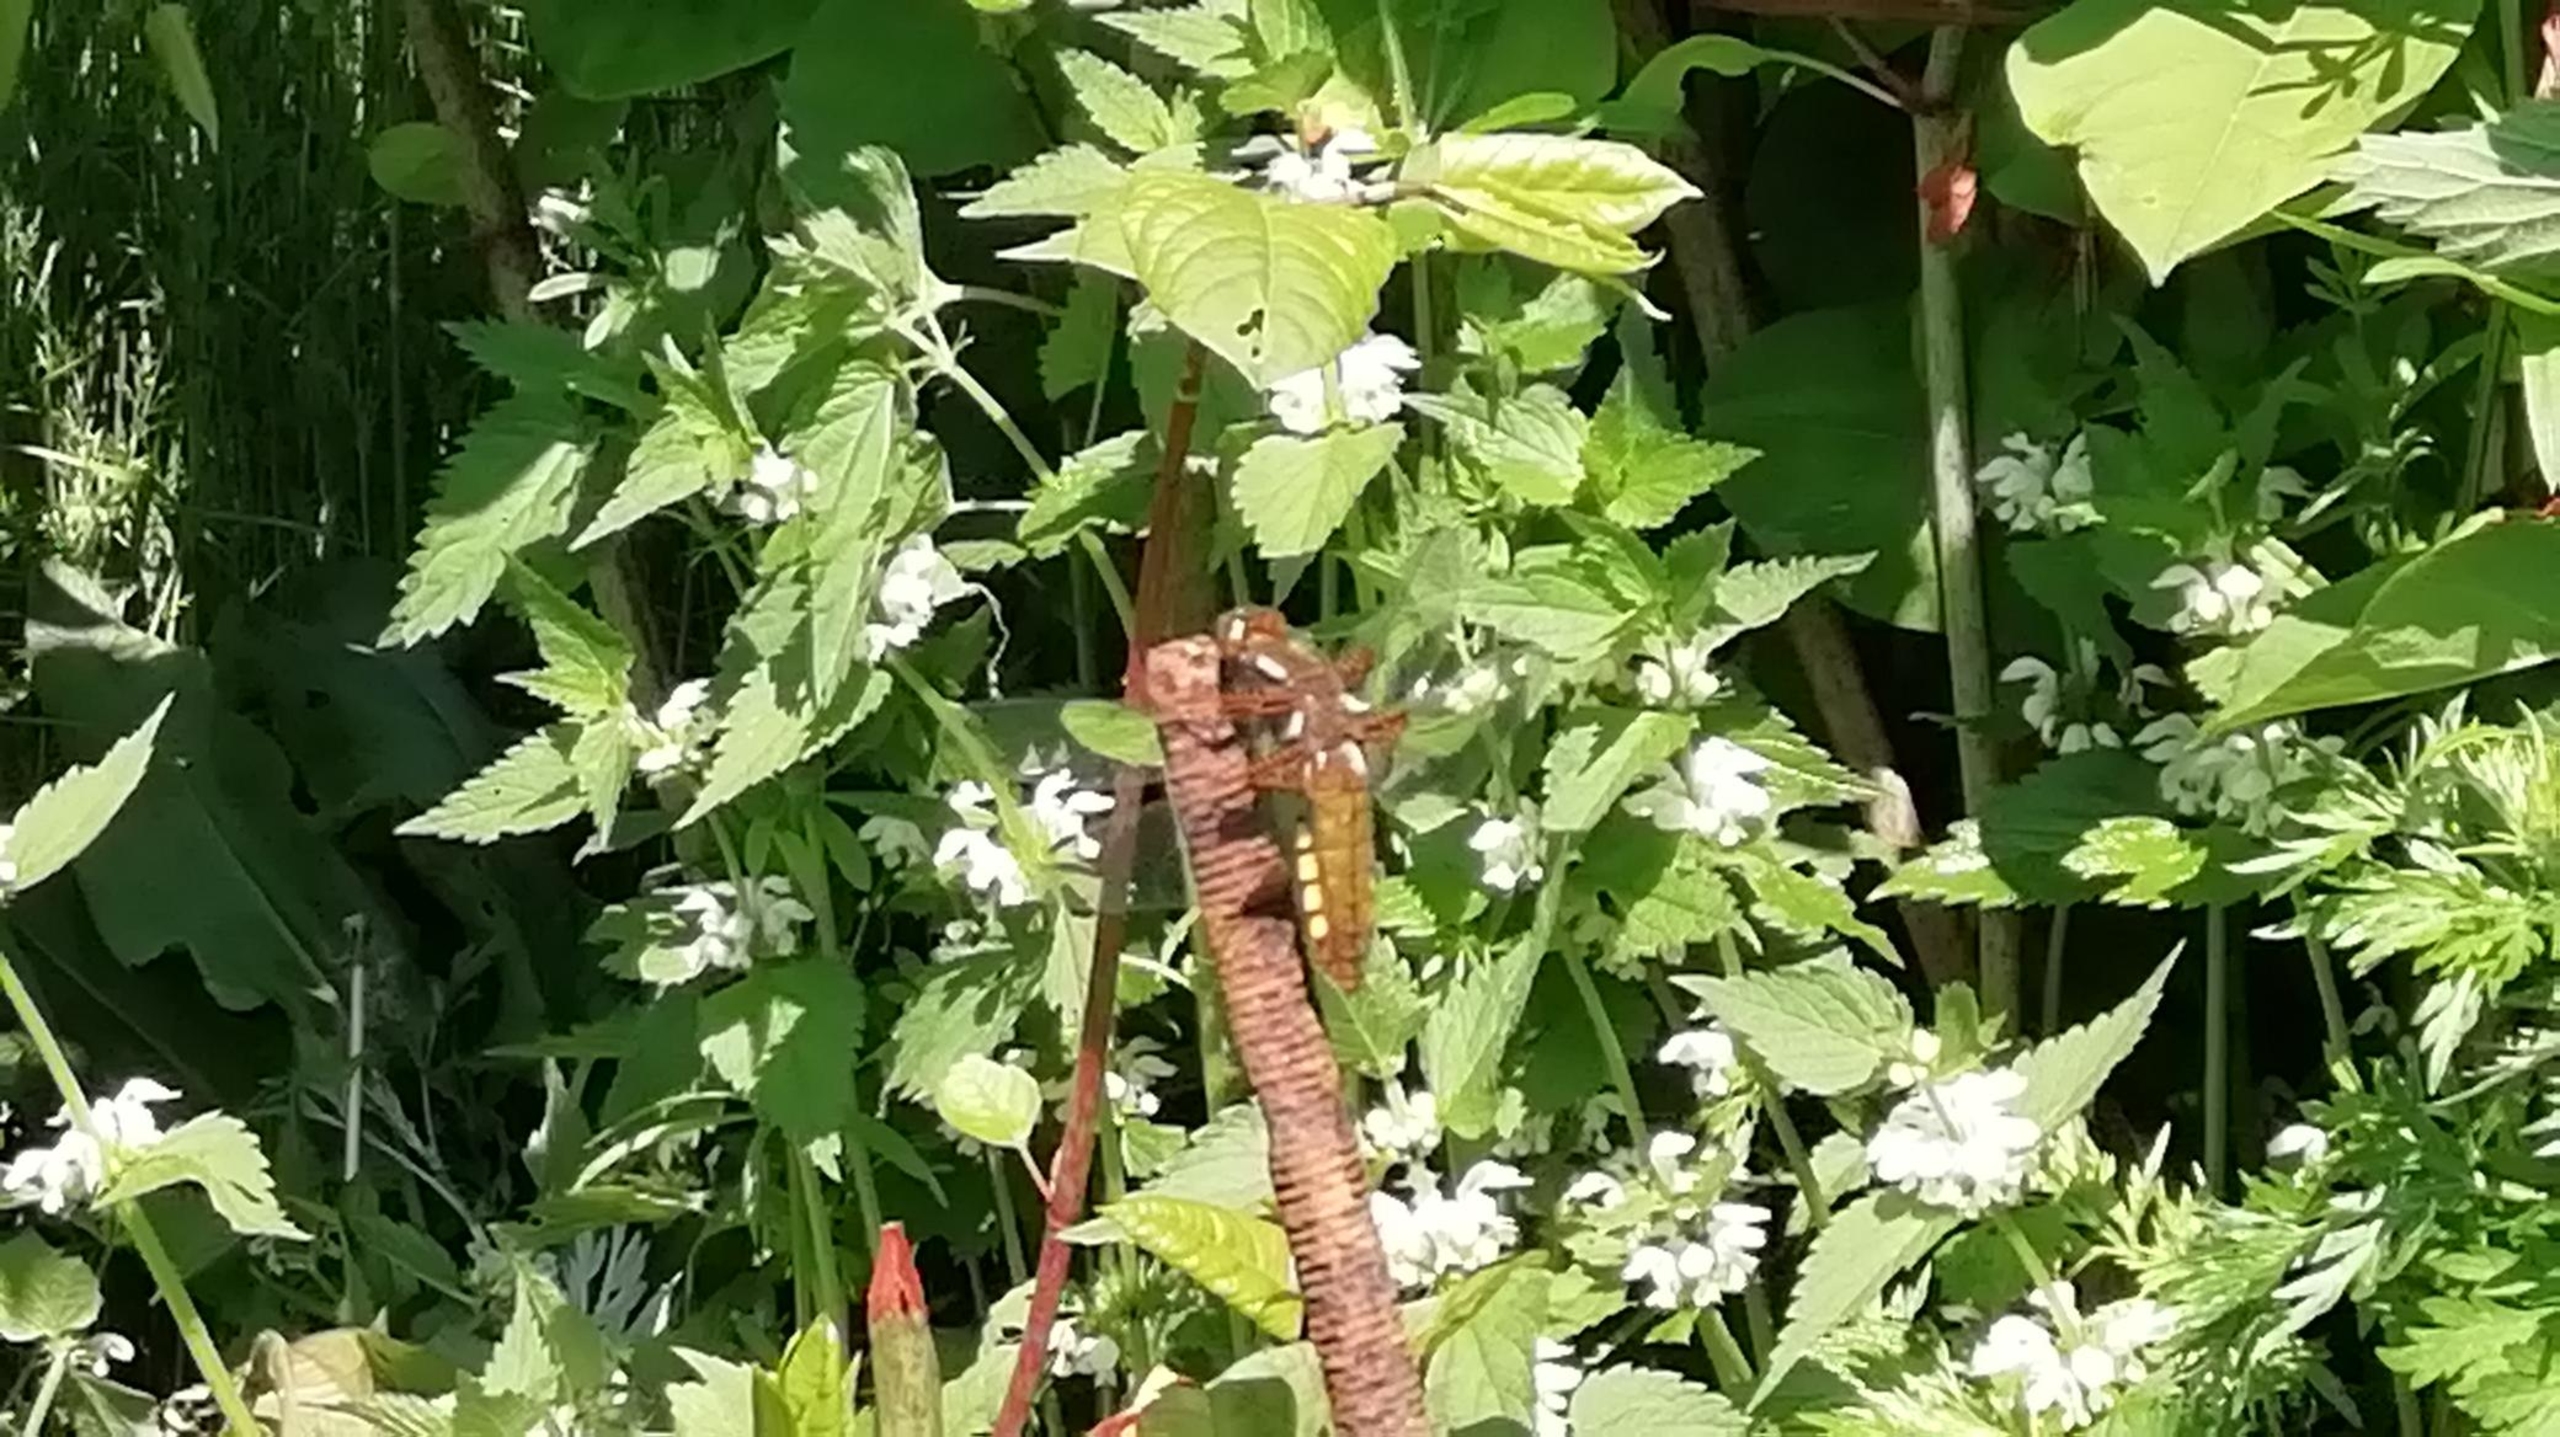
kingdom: Animalia
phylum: Arthropoda
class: Insecta
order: Odonata
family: Libellulidae
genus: Libellula
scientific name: Libellula depressa
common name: Blå libel
